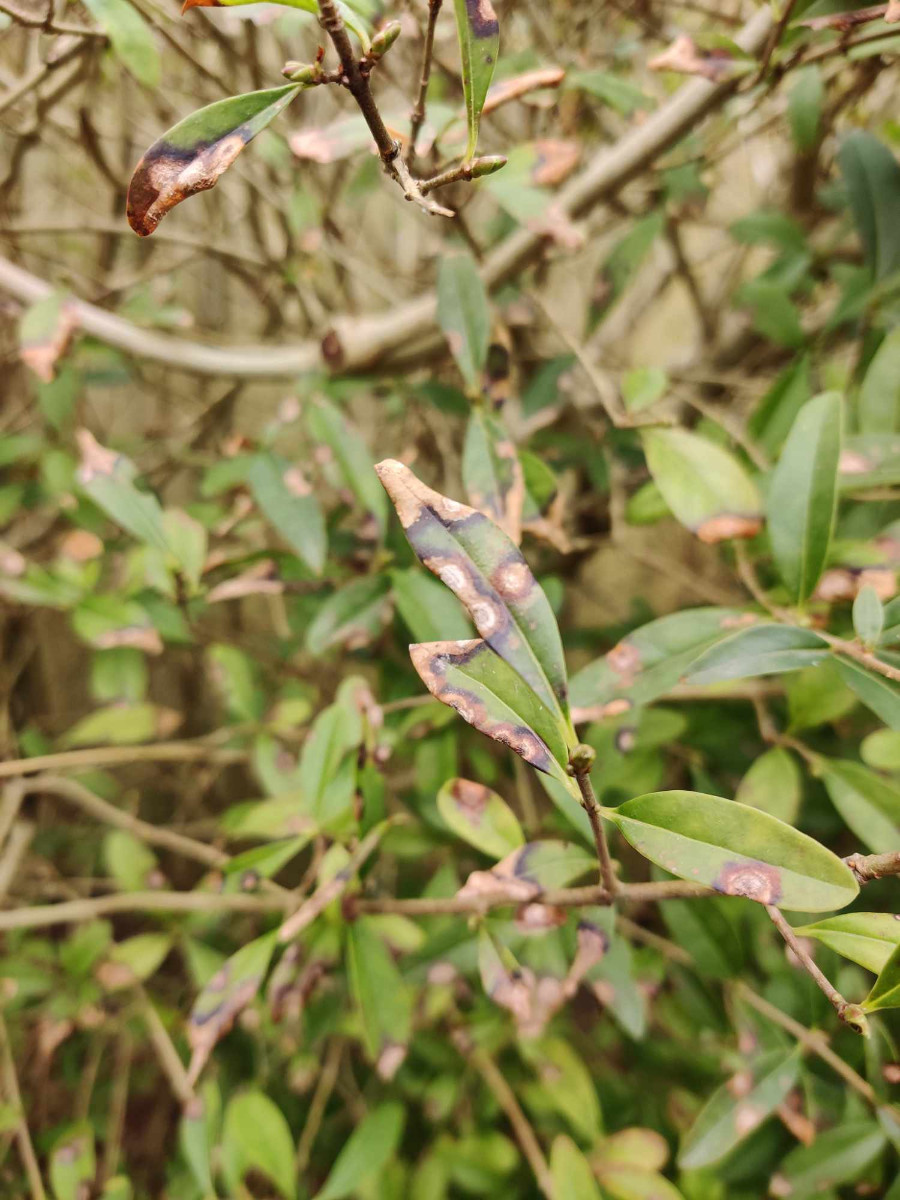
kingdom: Fungi
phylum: Ascomycota
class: Leotiomycetes
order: Helotiales
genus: Thedgonia
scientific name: Thedgonia ligustrina
